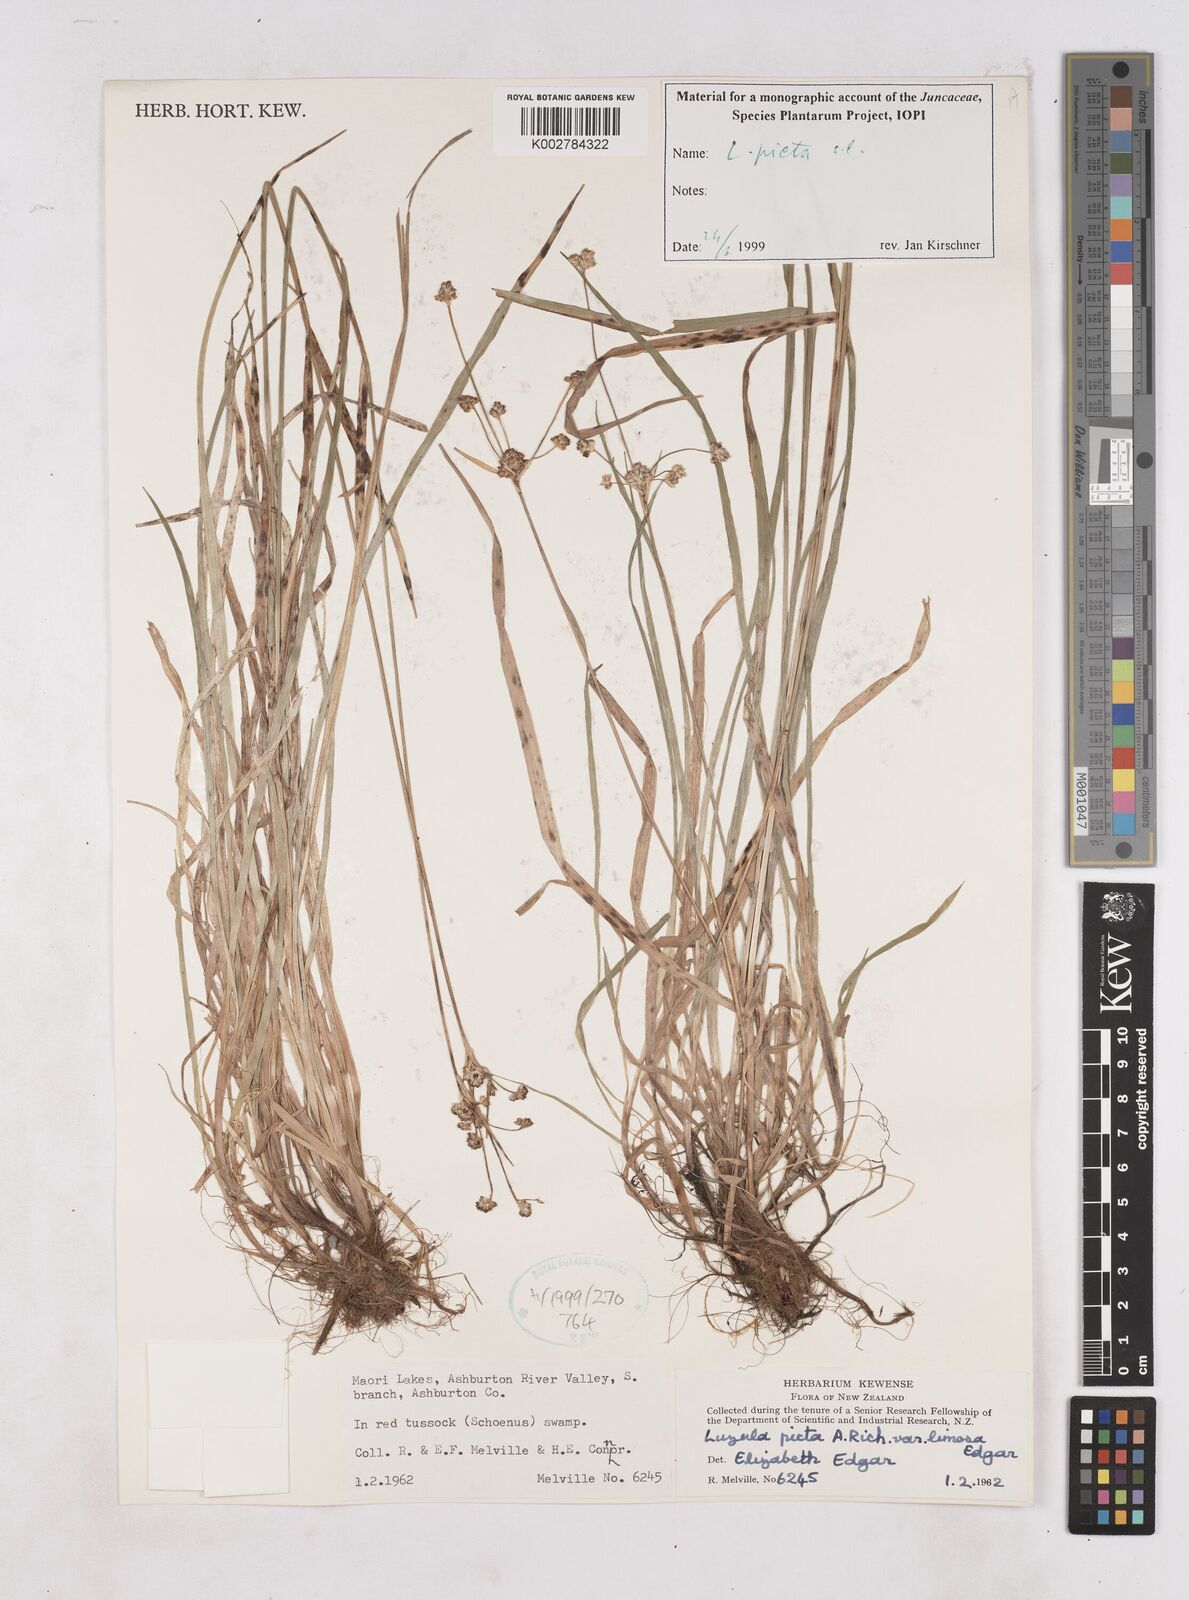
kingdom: Plantae
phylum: Tracheophyta
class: Liliopsida
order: Poales
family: Juncaceae
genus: Luzula
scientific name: Luzula picta
